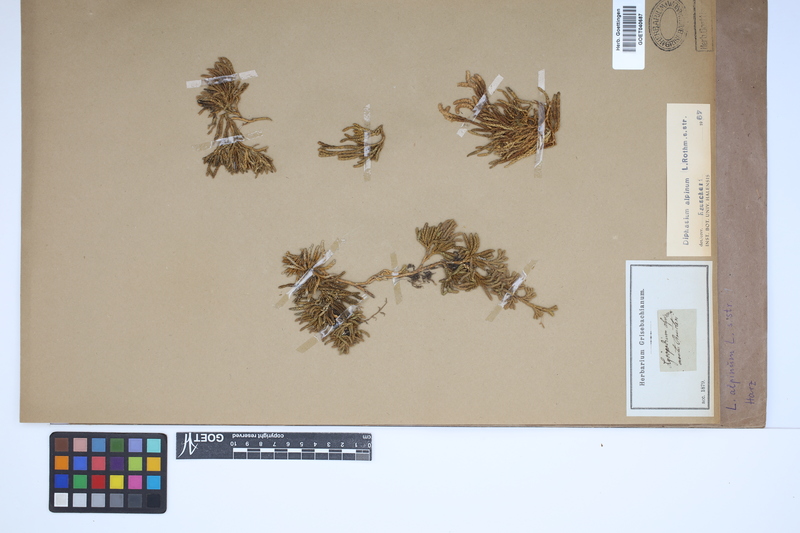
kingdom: Plantae
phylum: Tracheophyta
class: Lycopodiopsida
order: Lycopodiales
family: Lycopodiaceae
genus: Diphasiastrum
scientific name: Diphasiastrum alpinum
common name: Alpine clubmoss
